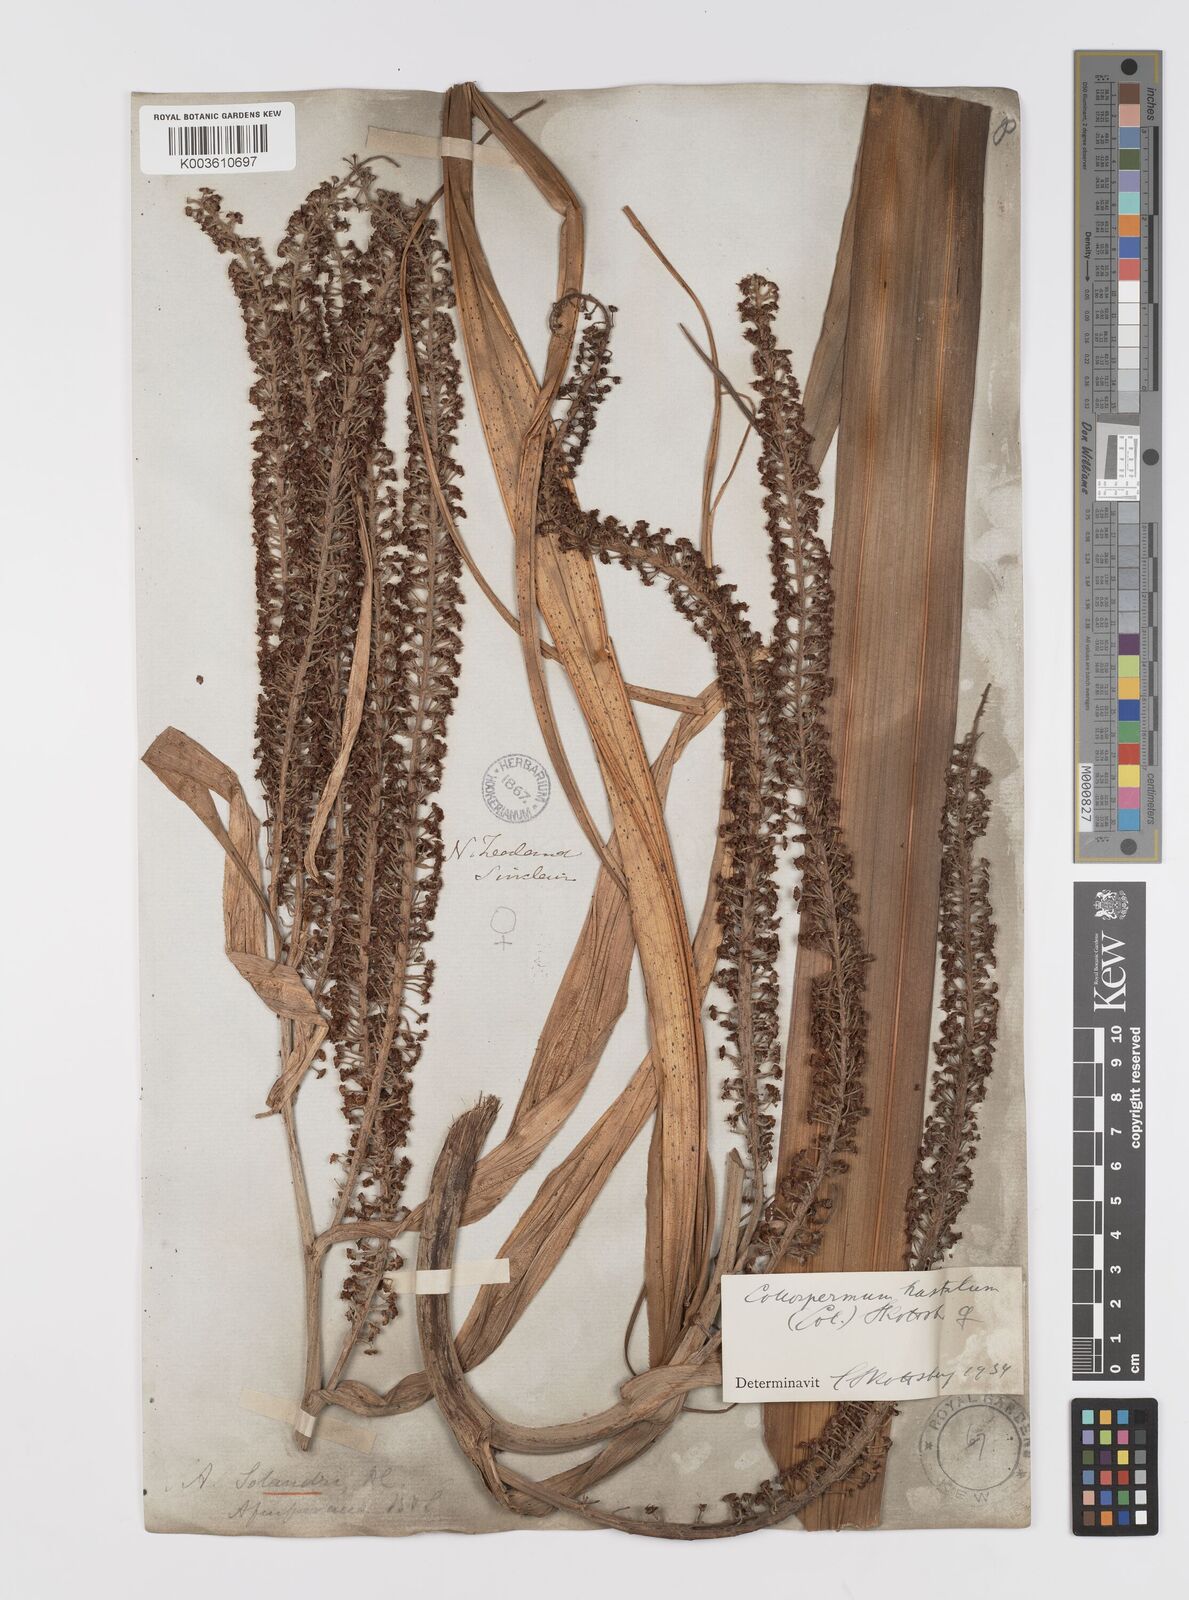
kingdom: Plantae
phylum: Tracheophyta
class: Liliopsida
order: Asparagales
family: Asteliaceae
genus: Astelia
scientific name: Astelia hastata
